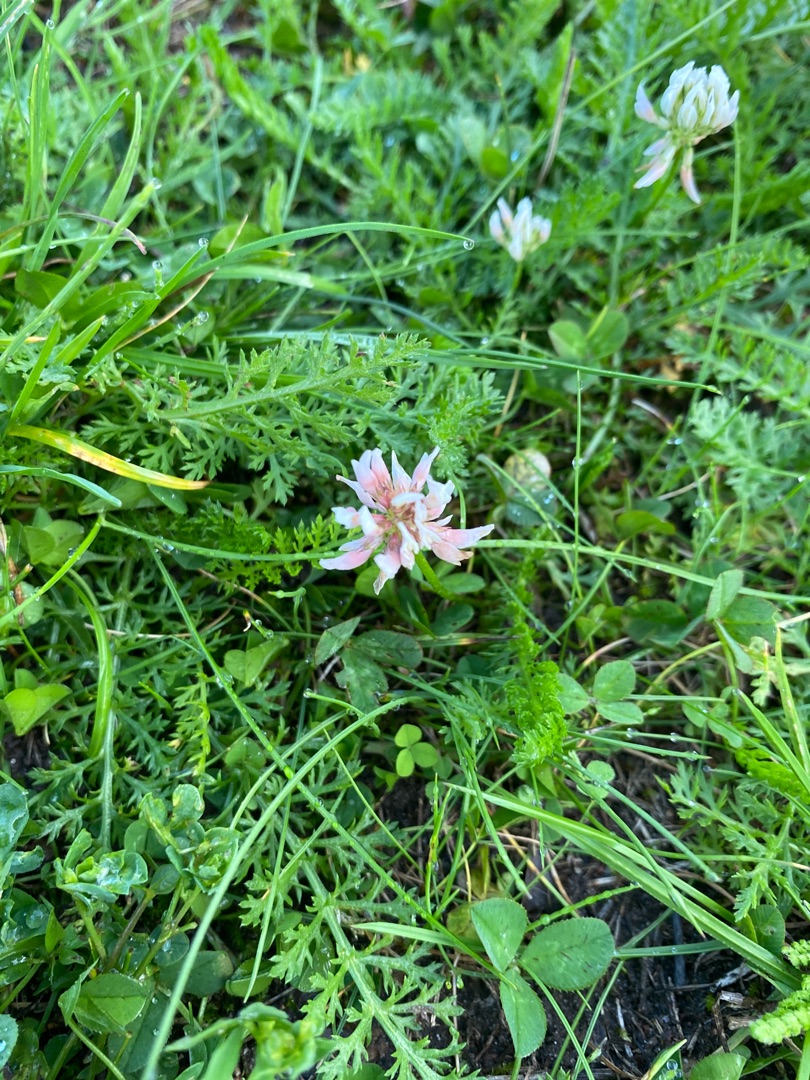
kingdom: Plantae
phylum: Tracheophyta
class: Magnoliopsida
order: Fabales
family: Fabaceae
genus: Trifolium
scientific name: Trifolium repens
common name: Hvid-kløver
